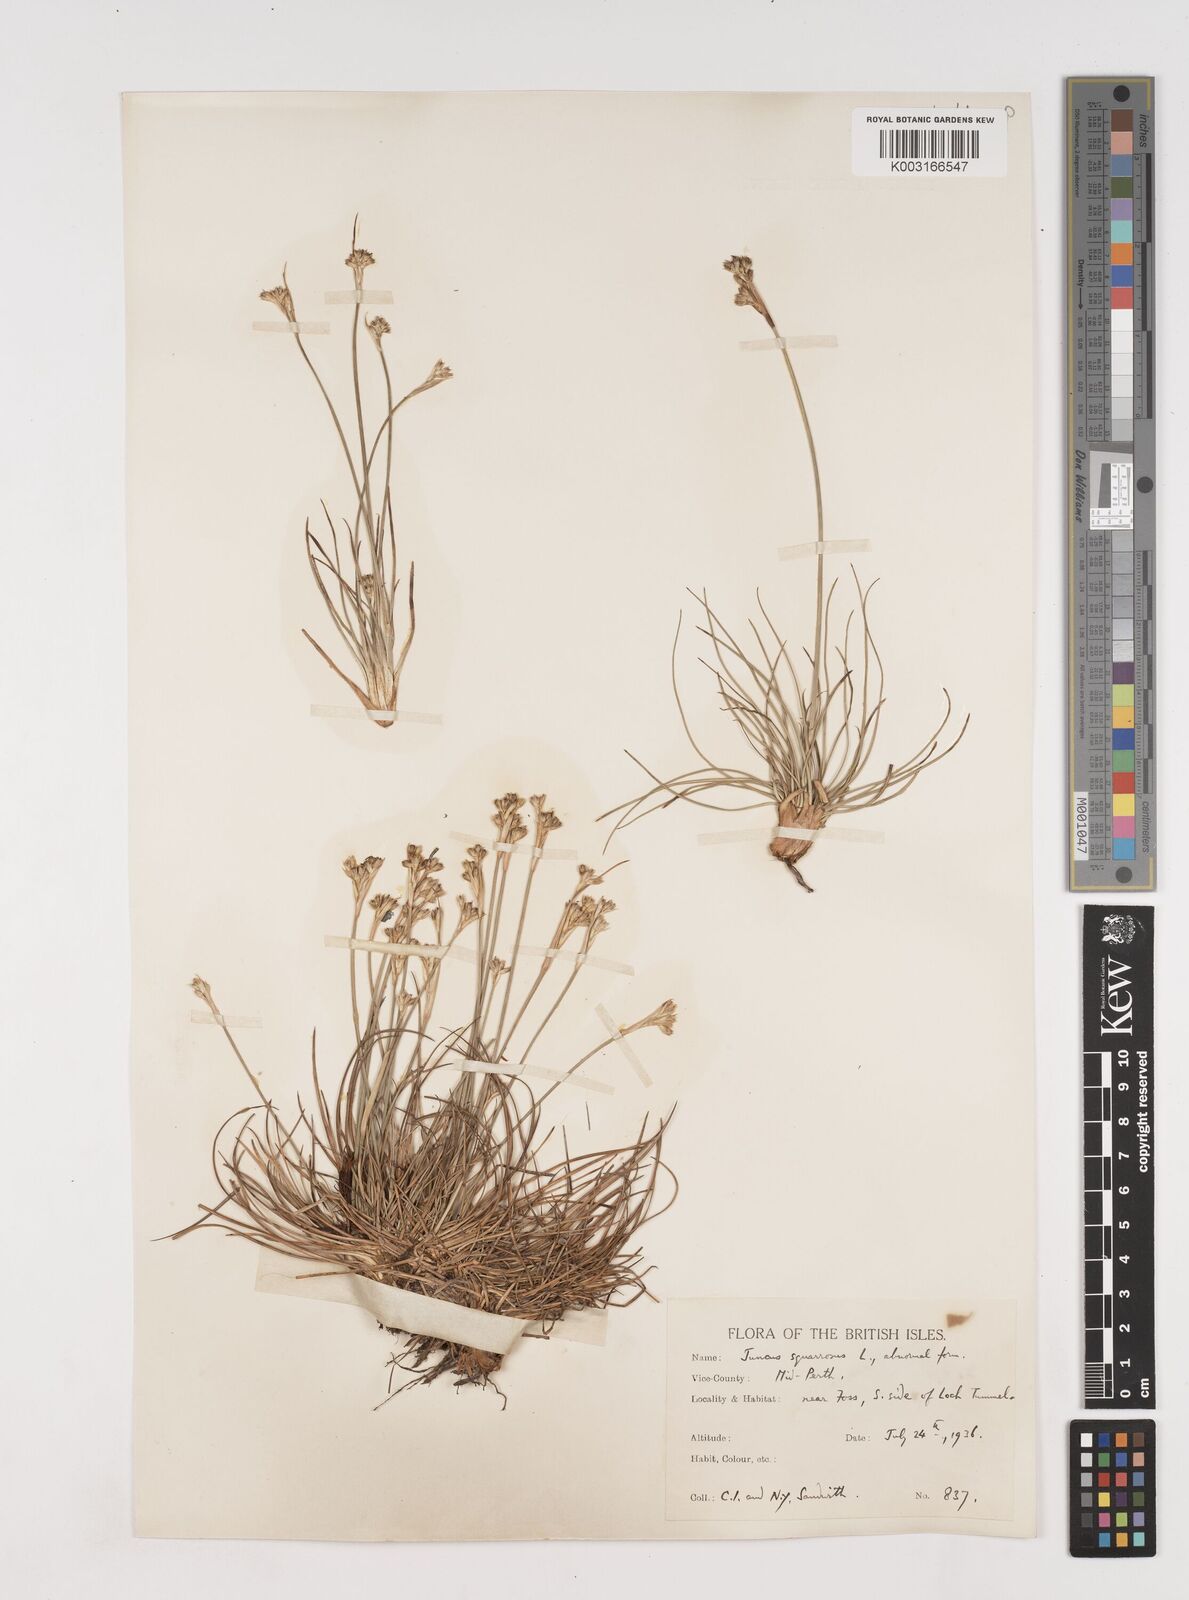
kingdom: Plantae
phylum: Tracheophyta
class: Liliopsida
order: Poales
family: Juncaceae
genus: Juncus
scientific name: Juncus squarrosus
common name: Heath rush
